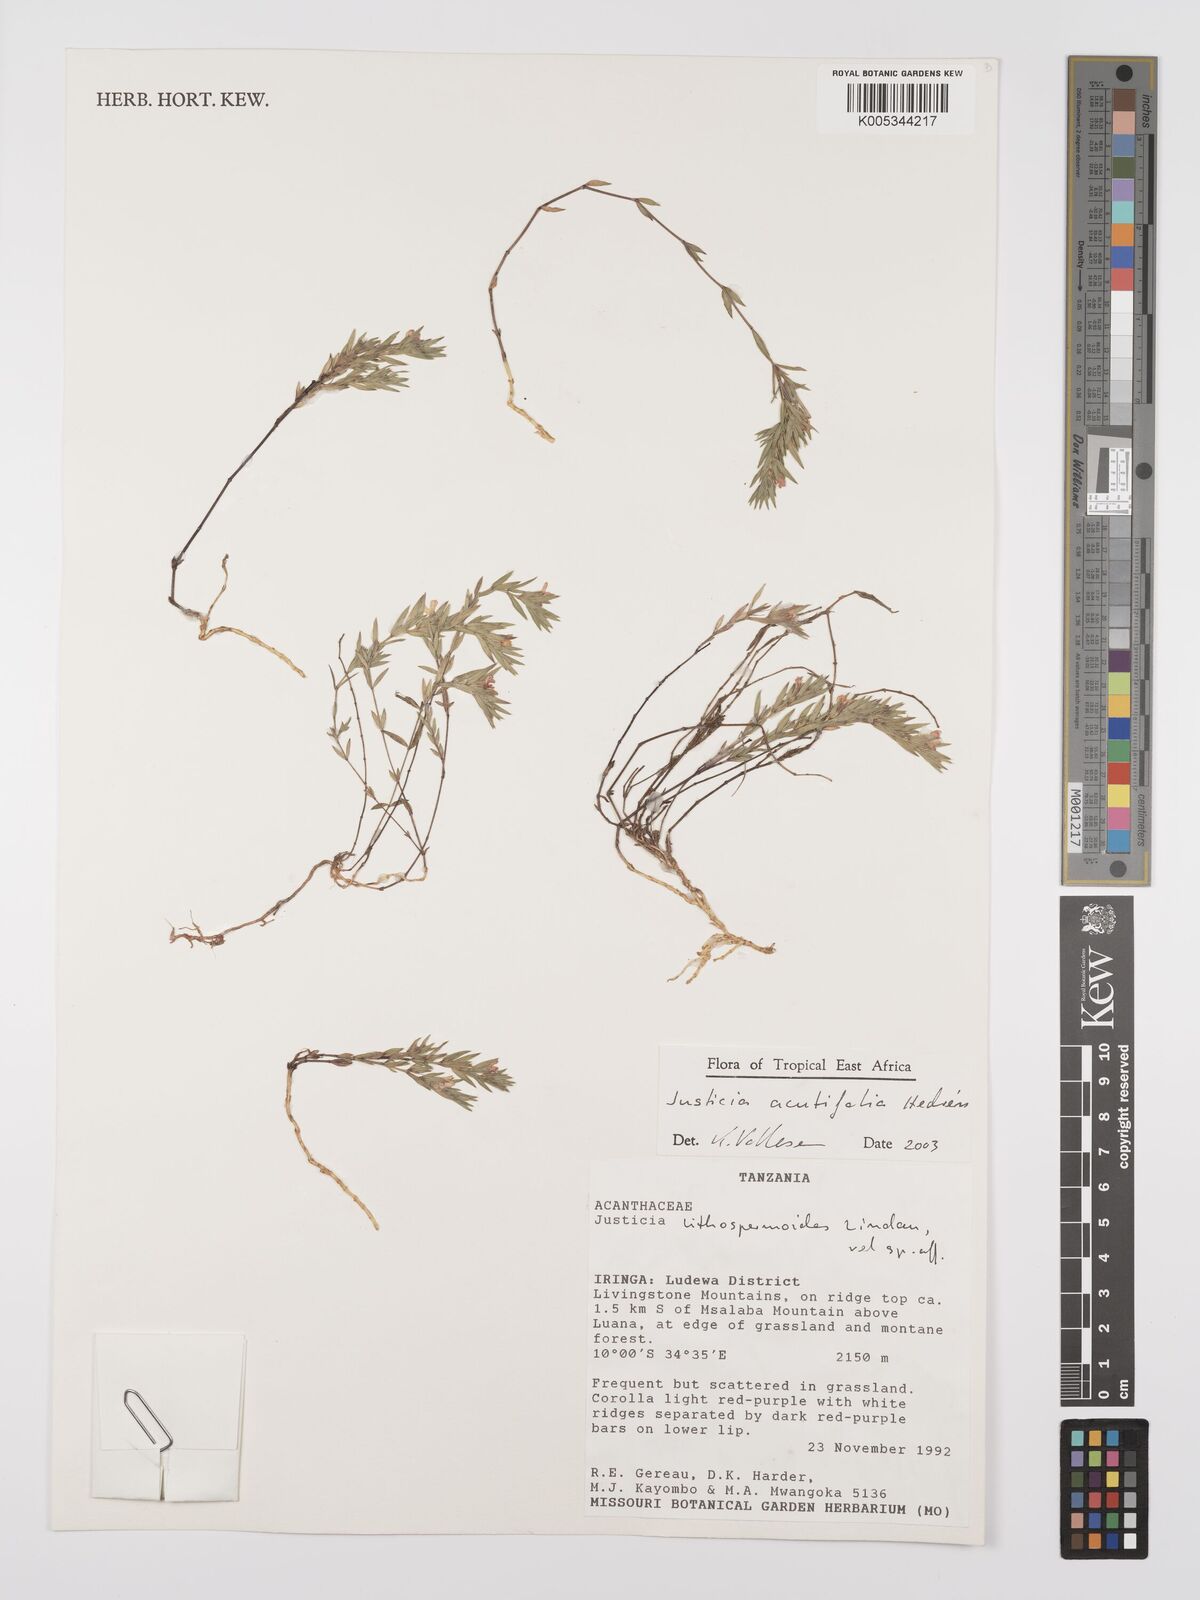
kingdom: Plantae
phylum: Tracheophyta
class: Magnoliopsida
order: Lamiales
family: Acanthaceae
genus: Justicia
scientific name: Justicia acutifolia
